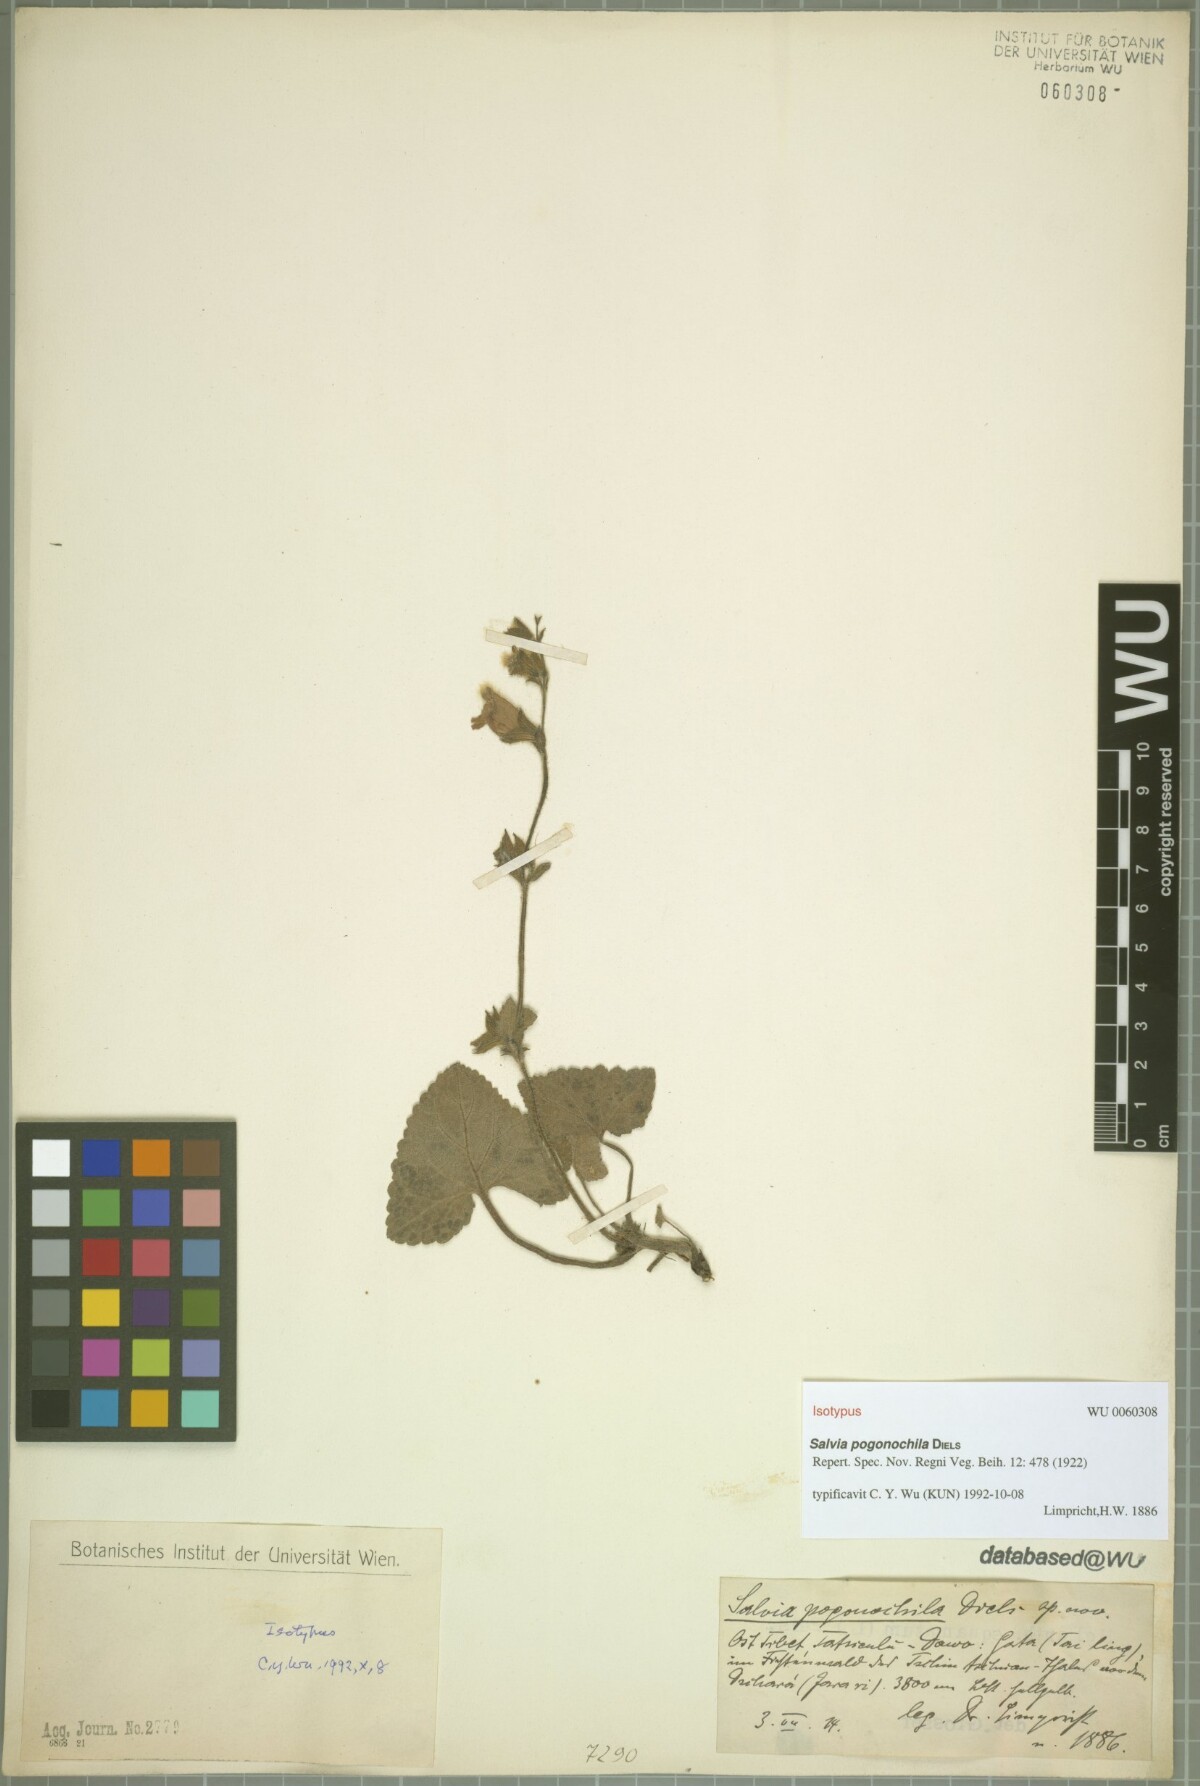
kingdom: Plantae
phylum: Tracheophyta
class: Magnoliopsida
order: Lamiales
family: Lamiaceae
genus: Salvia
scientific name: Salvia pogonochila
